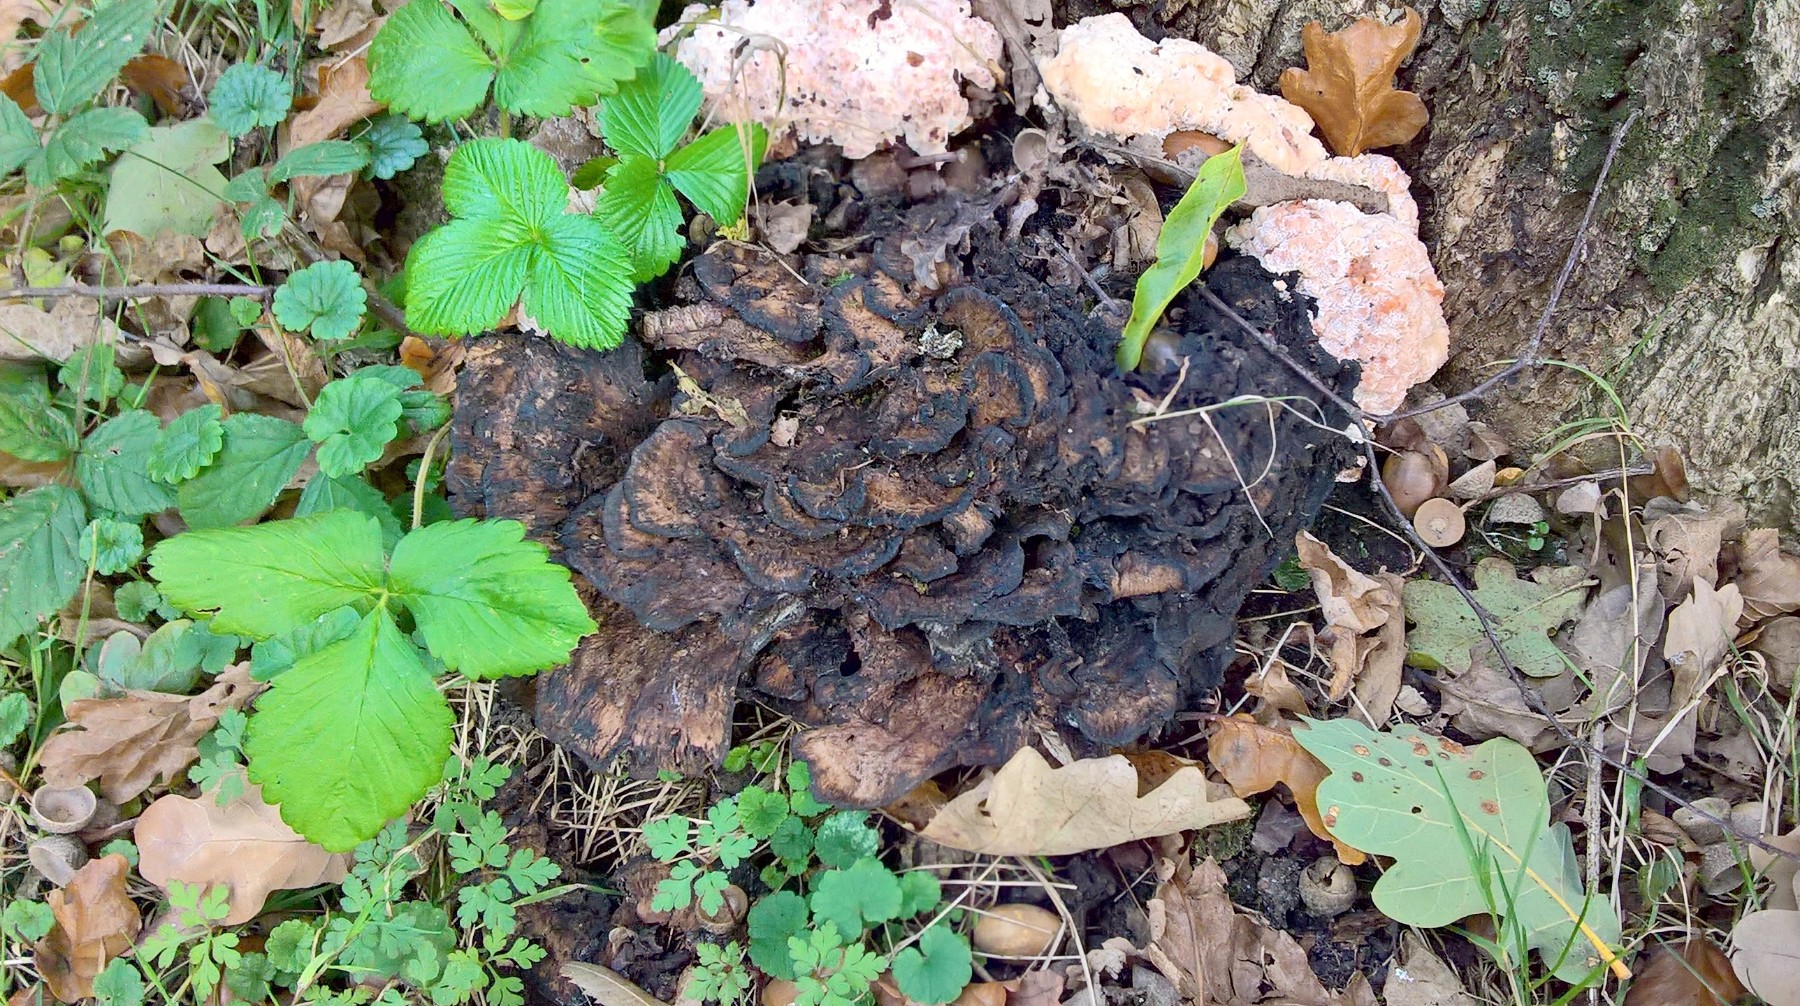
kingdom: Fungi
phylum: Basidiomycota
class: Agaricomycetes
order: Polyporales
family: Grifolaceae
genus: Grifola
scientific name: Grifola frondosa
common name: tueporesvamp
